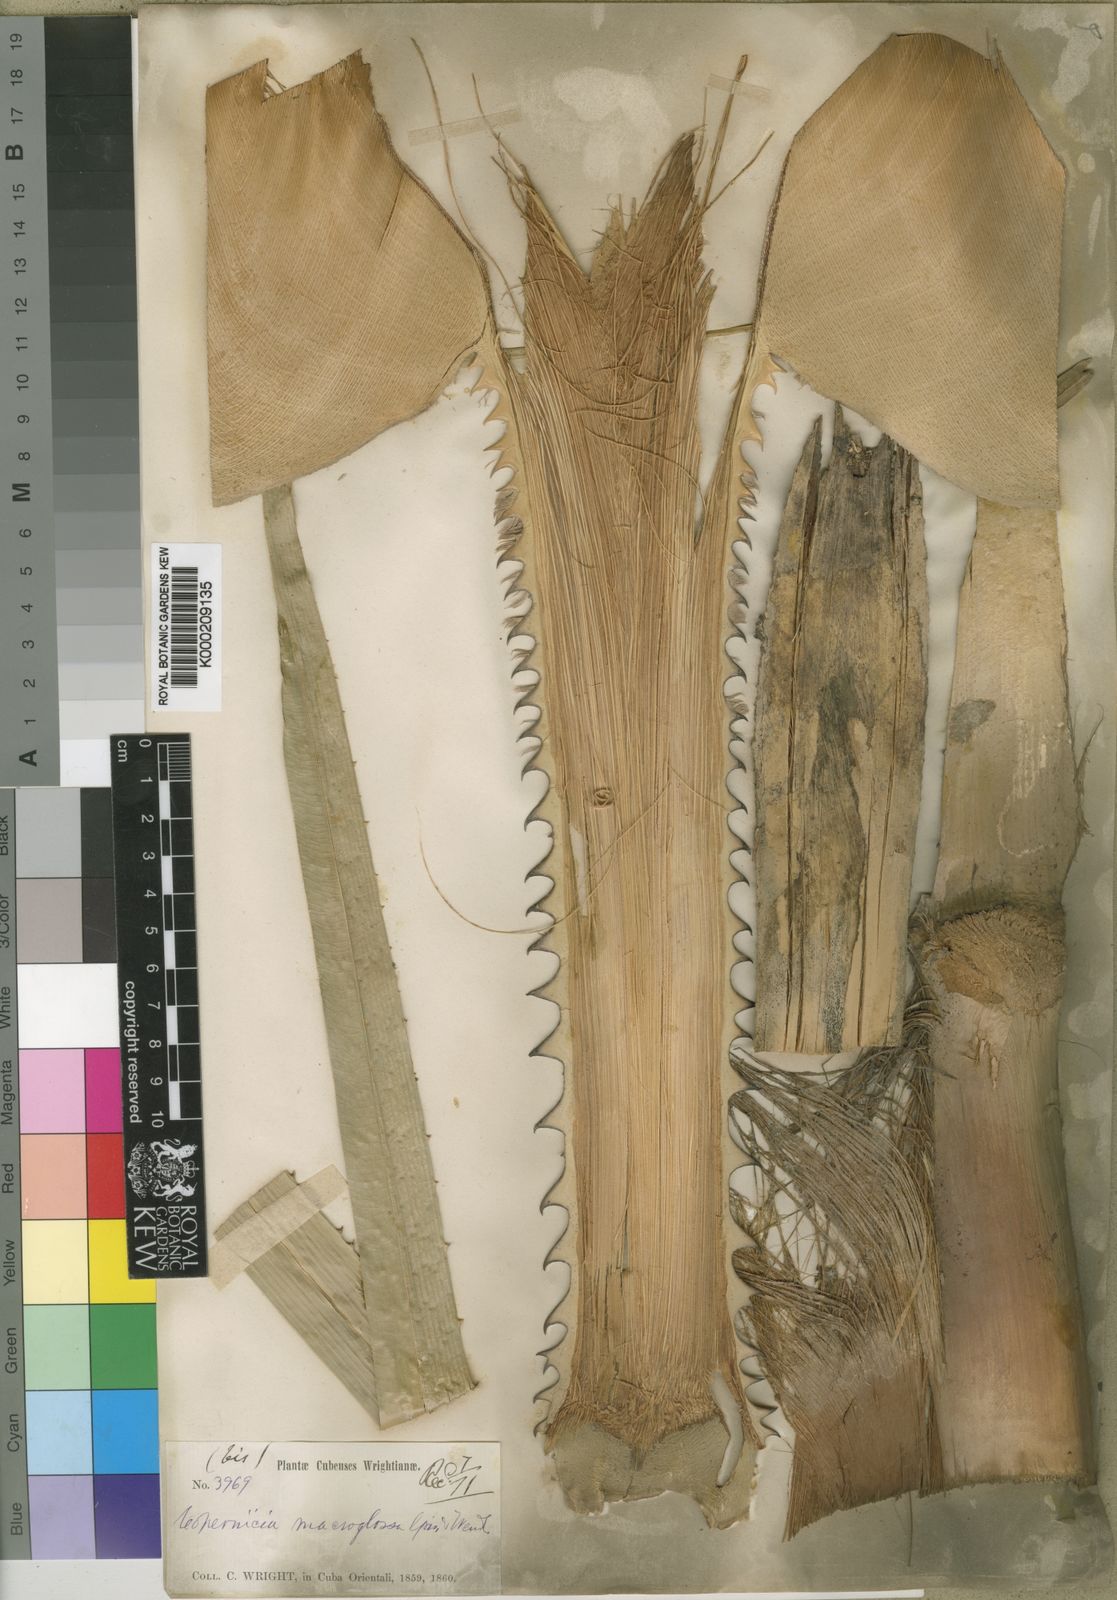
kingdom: Plantae
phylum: Tracheophyta
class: Liliopsida
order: Arecales
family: Arecaceae
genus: Copernicia
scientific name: Copernicia
